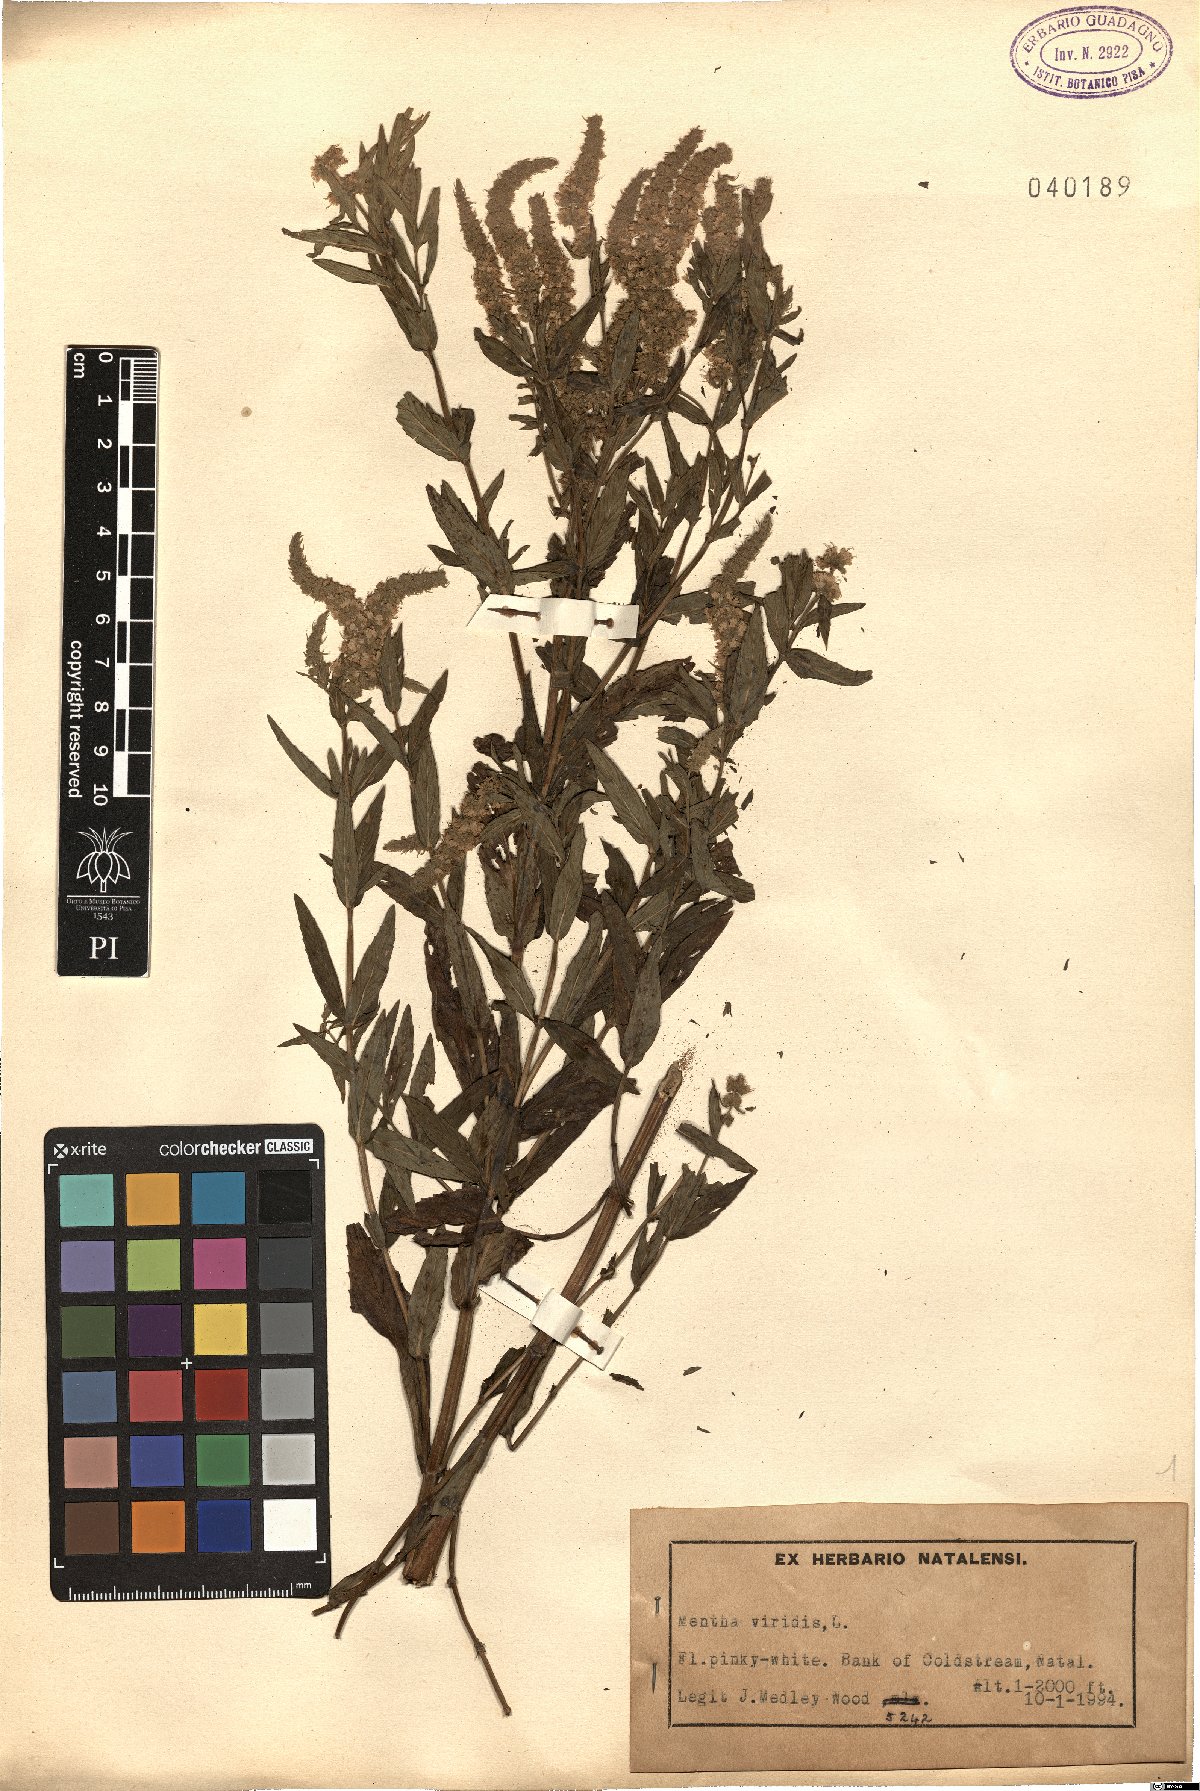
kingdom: Plantae
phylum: Tracheophyta
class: Magnoliopsida
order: Lamiales
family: Lamiaceae
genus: Mentha
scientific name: Mentha spicata
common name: Spearmint
